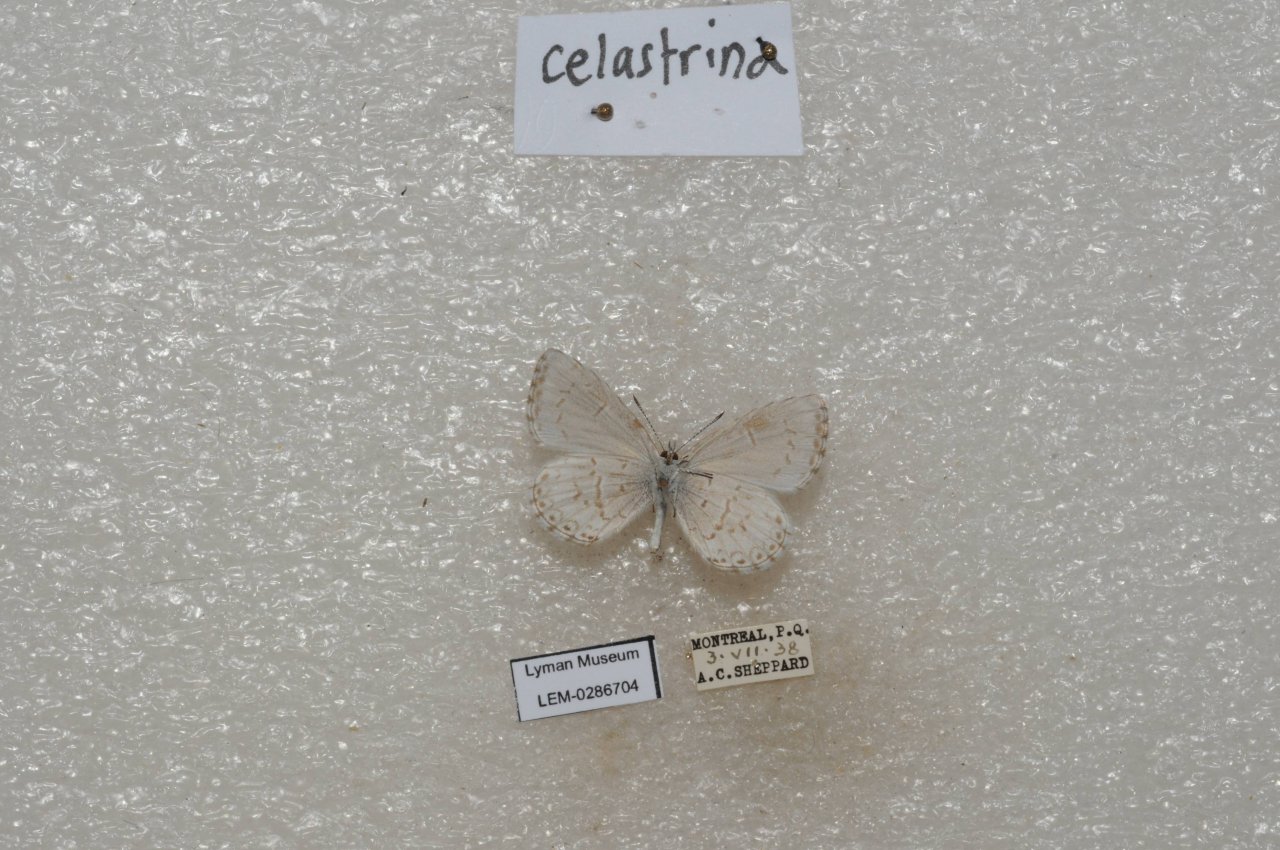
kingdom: Animalia
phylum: Arthropoda
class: Insecta
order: Lepidoptera
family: Lycaenidae
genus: Celastrina
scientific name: Celastrina lucia
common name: Northern Spring Azure
